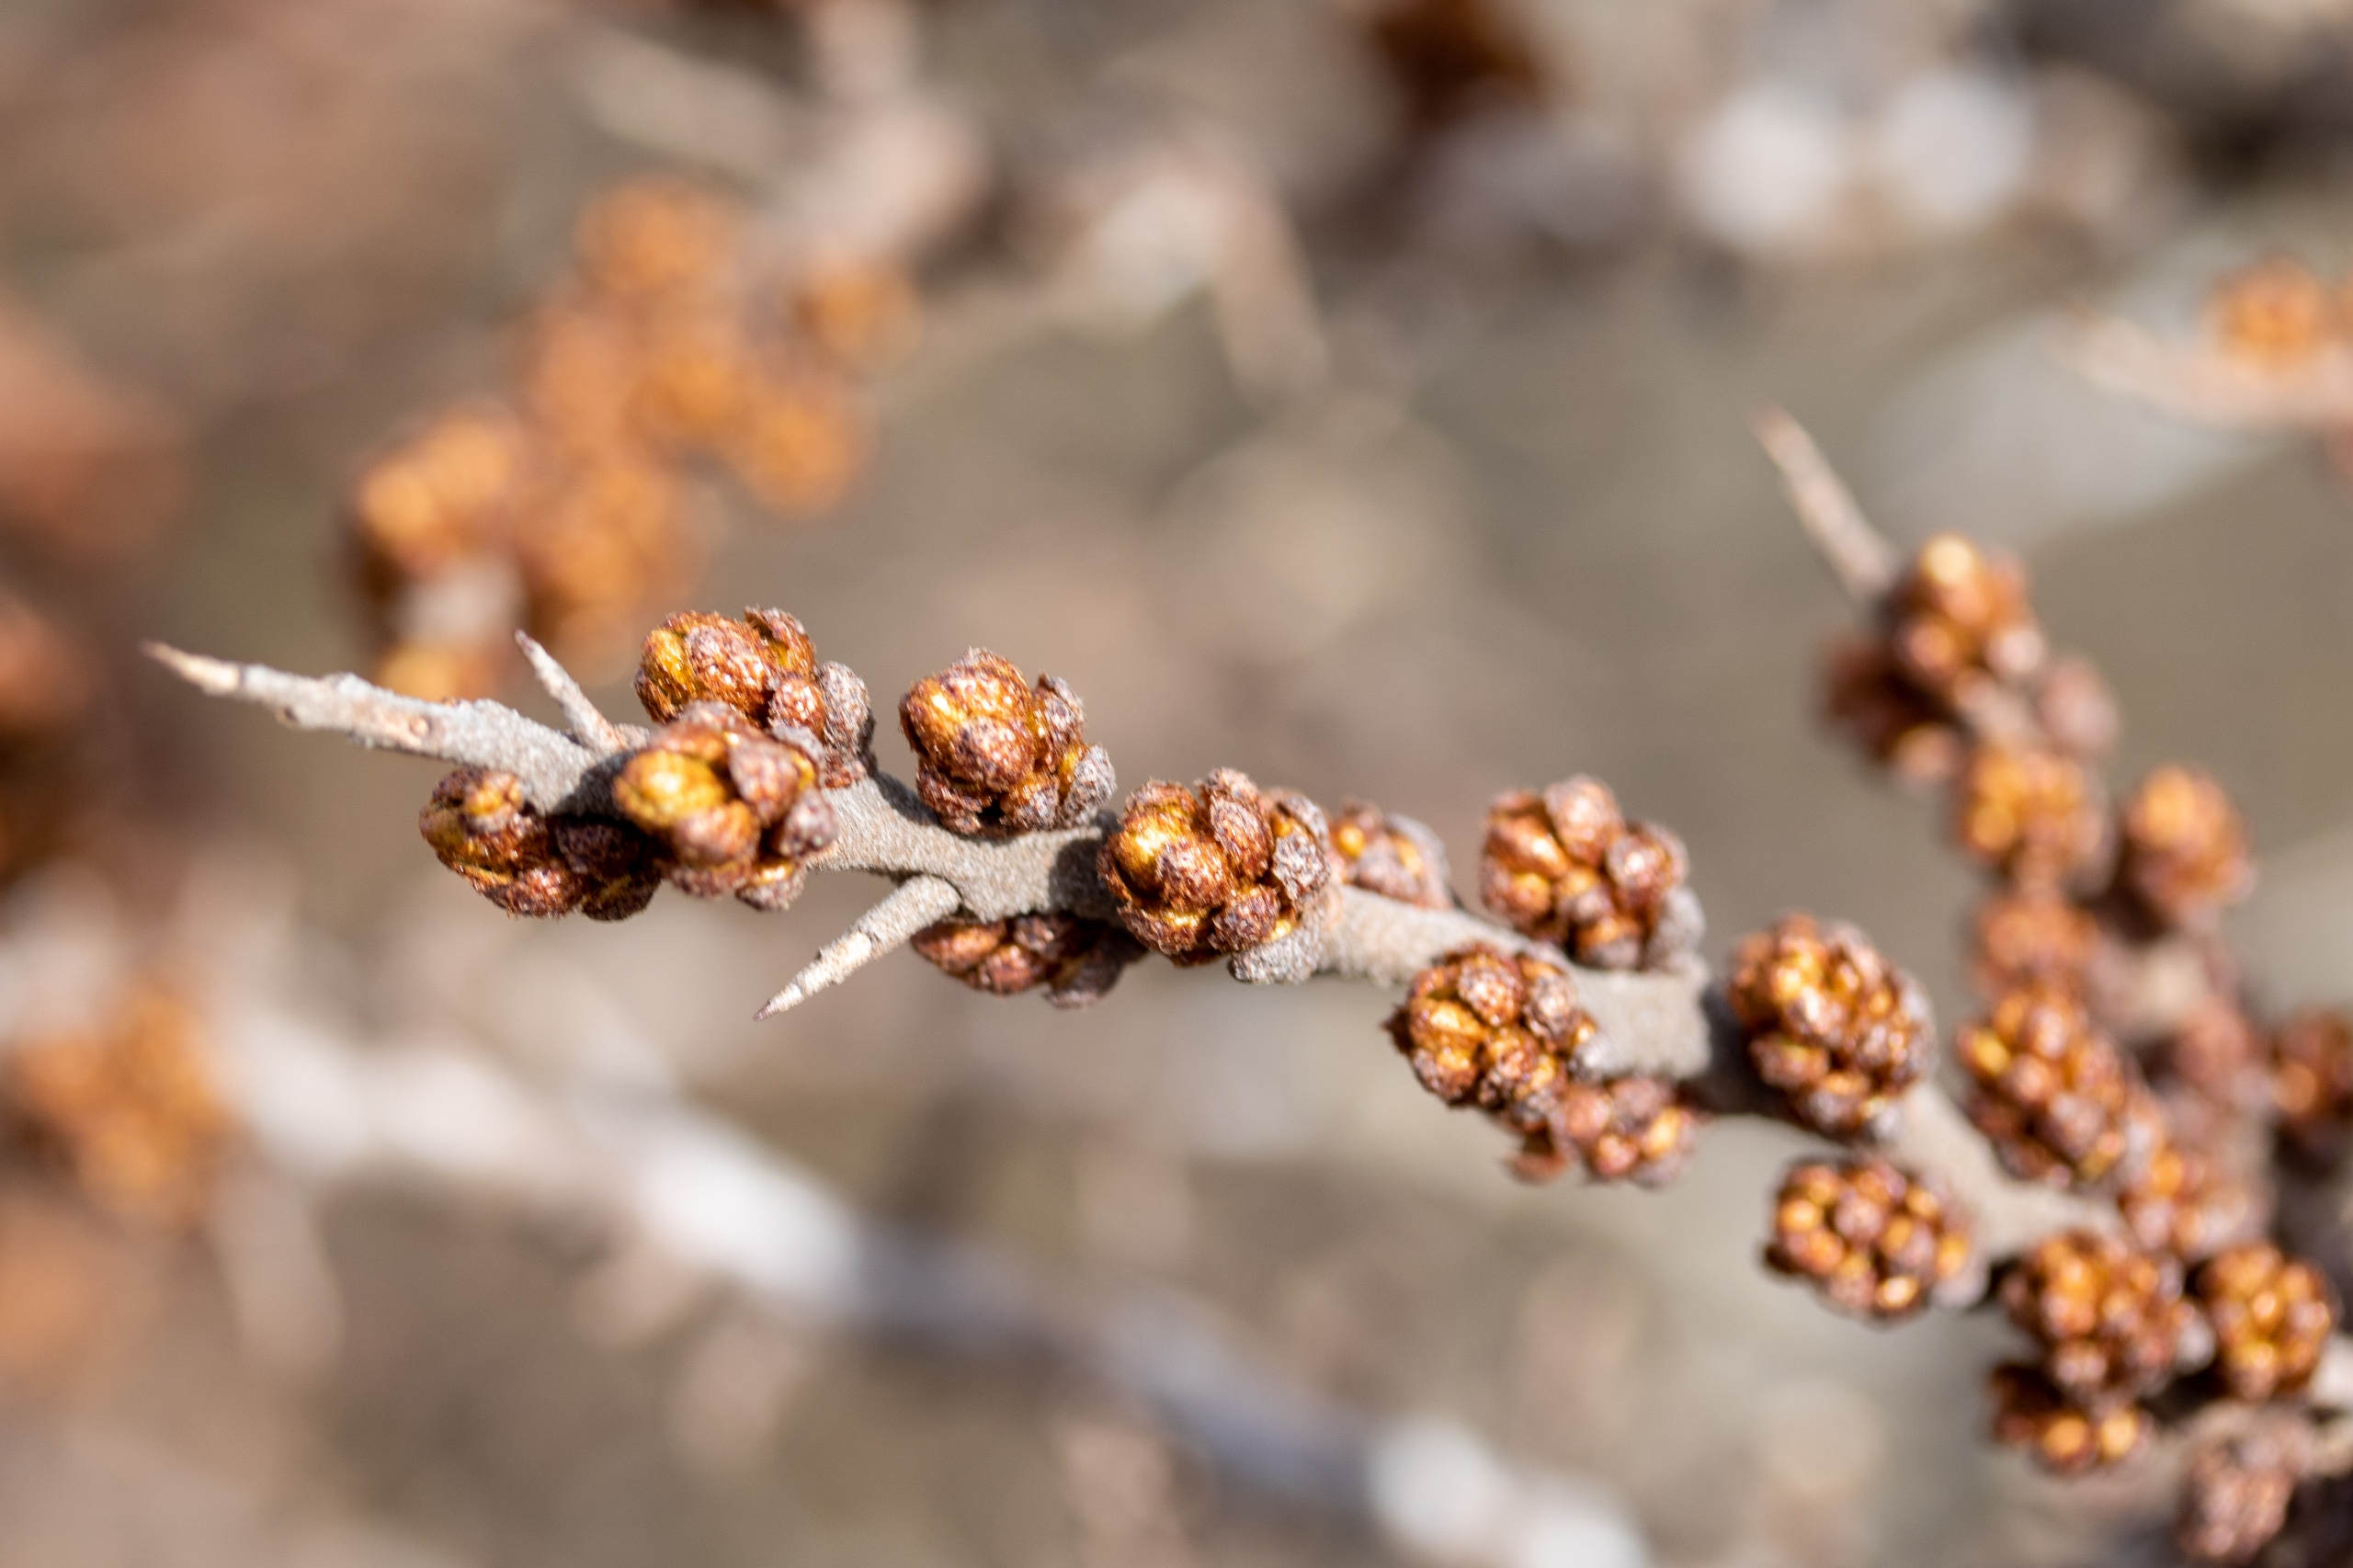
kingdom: Plantae
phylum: Tracheophyta
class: Magnoliopsida
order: Rosales
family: Elaeagnaceae
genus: Hippophae
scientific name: Hippophae rhamnoides
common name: Havtorn
